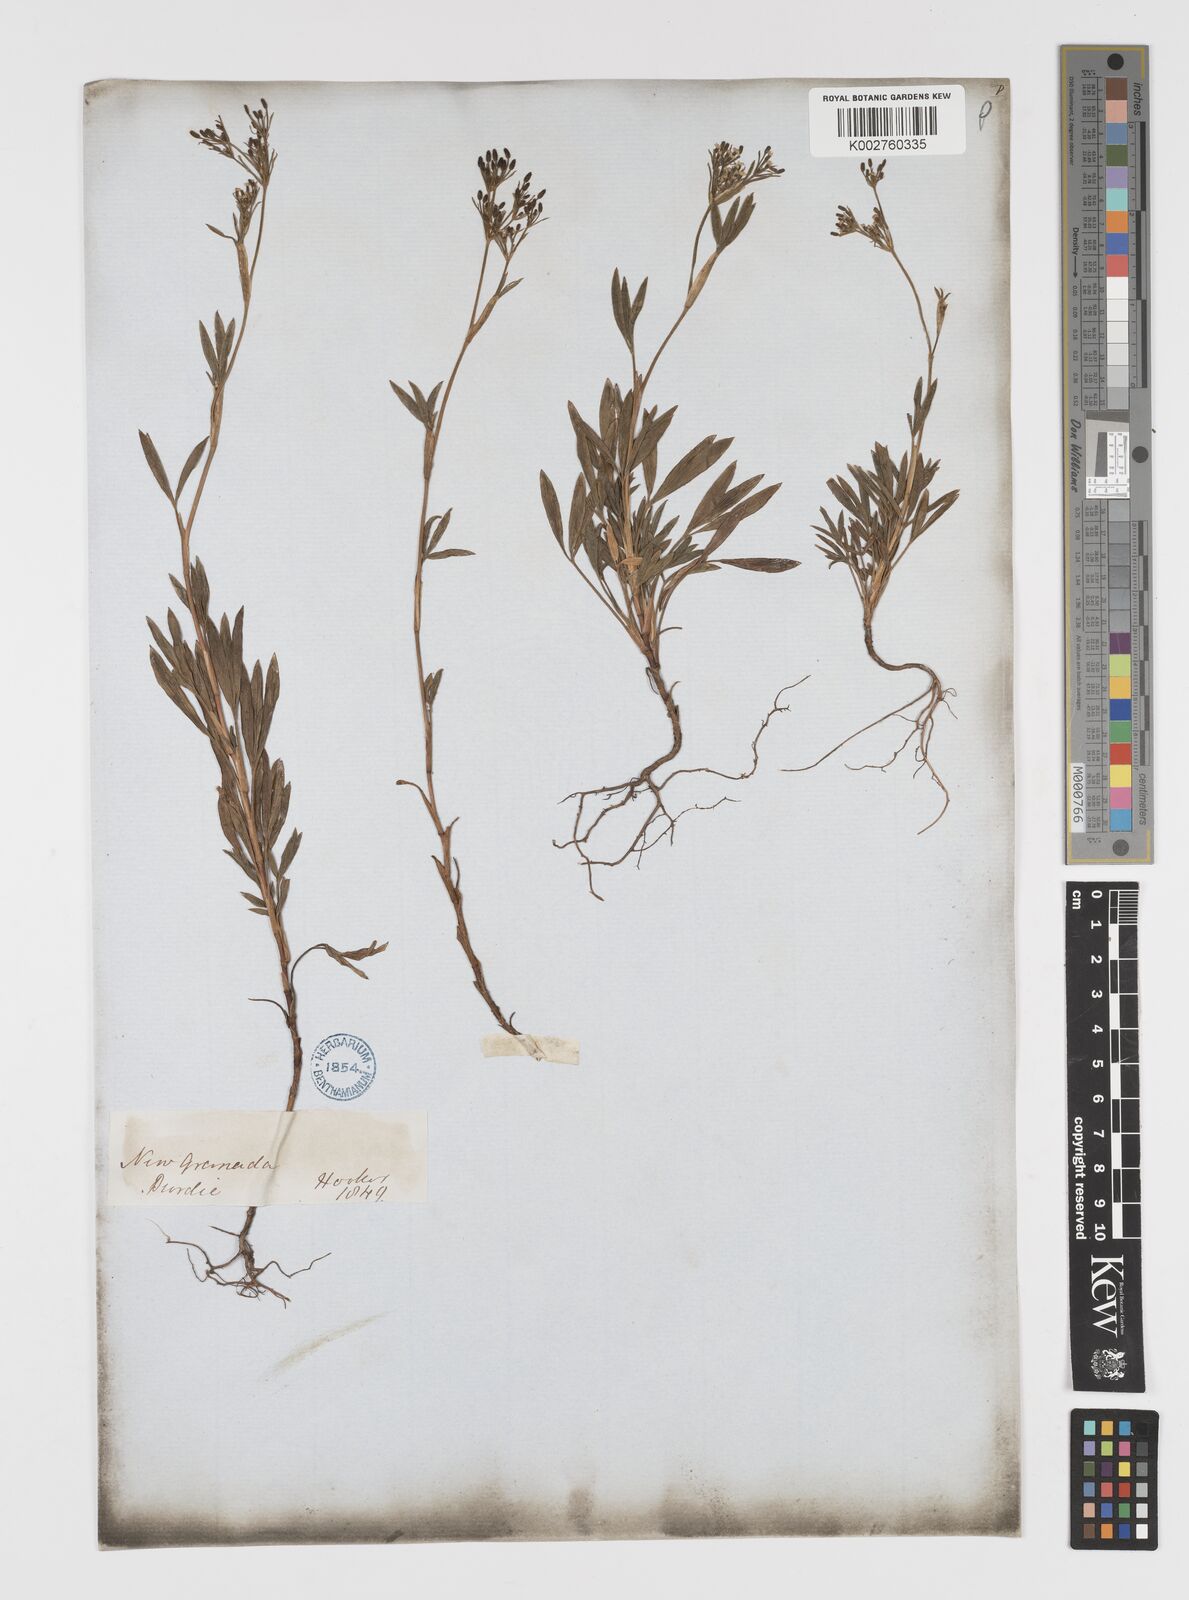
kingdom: Plantae
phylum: Tracheophyta
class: Magnoliopsida
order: Apiales
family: Apiaceae
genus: Niphogeton
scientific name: Niphogeton chirripoi
